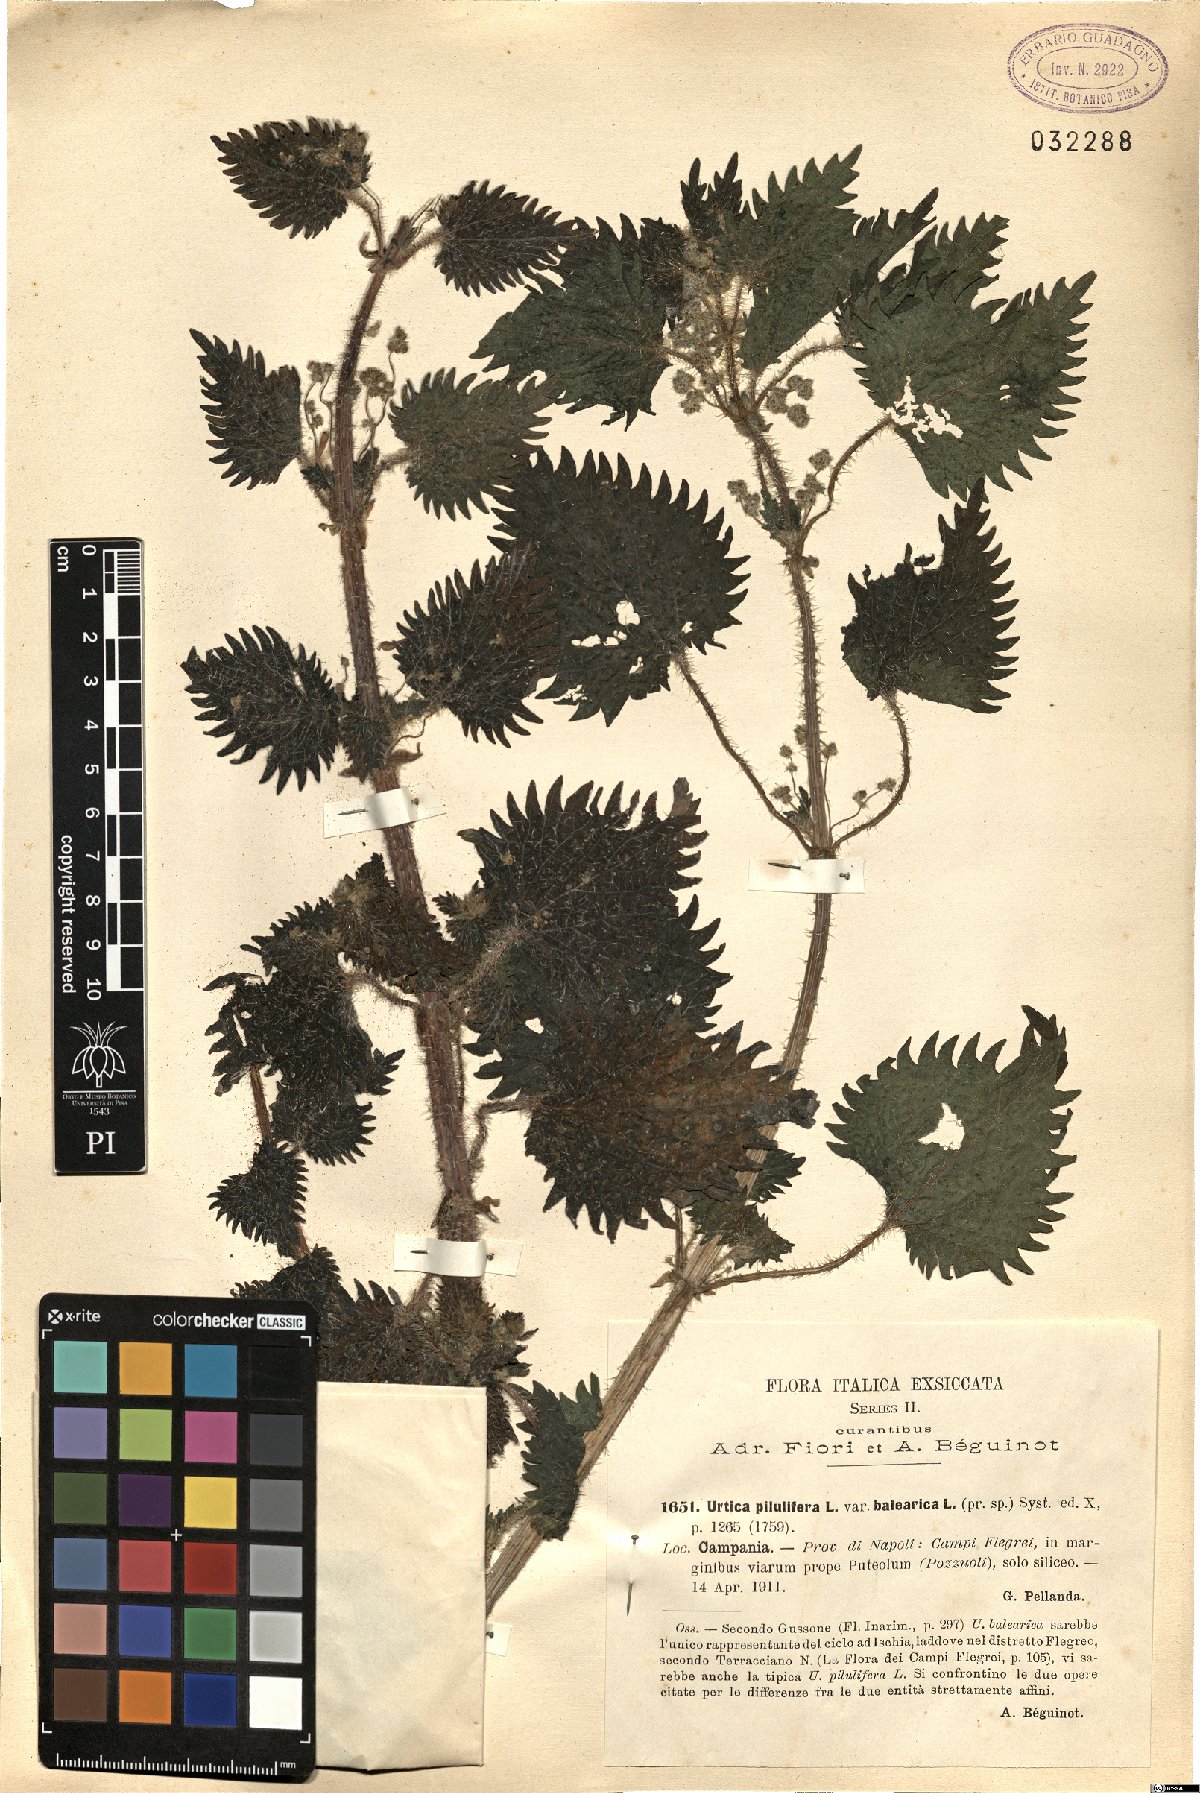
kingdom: Plantae
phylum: Tracheophyta
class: Magnoliopsida
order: Rosales
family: Urticaceae
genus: Urtica
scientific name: Urtica pilulifera
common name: Roman nettle
